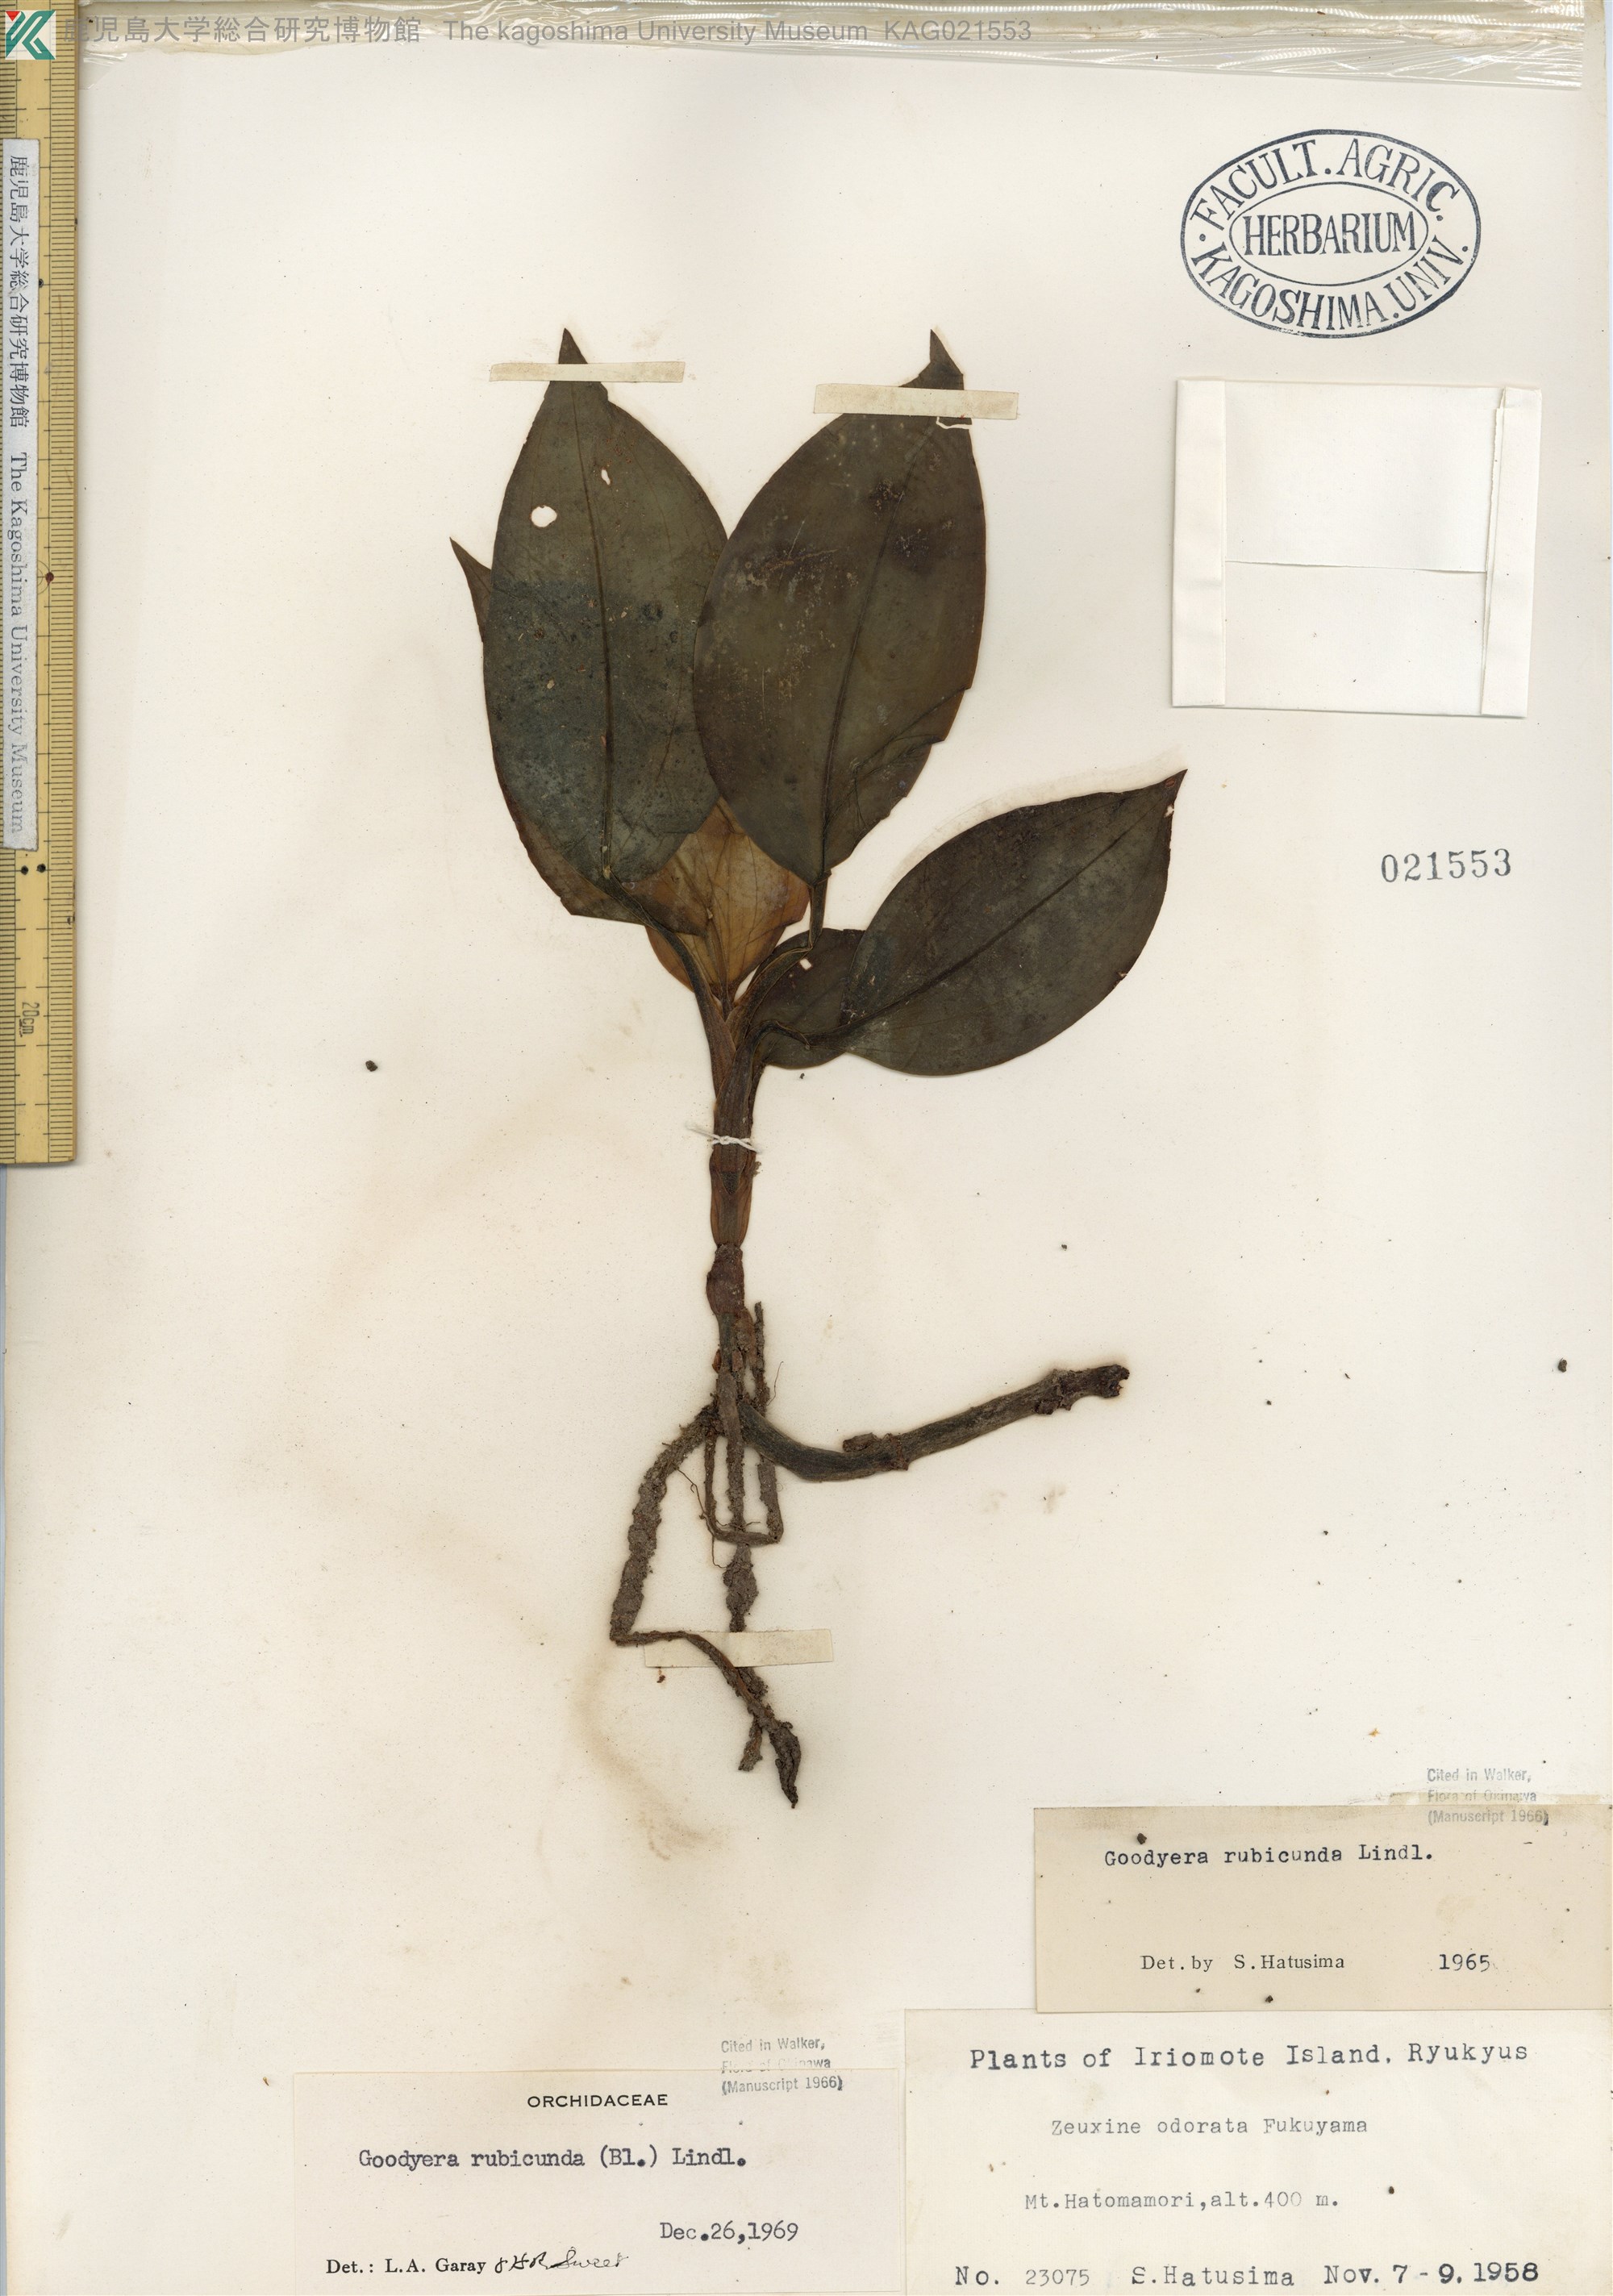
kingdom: Plantae
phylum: Tracheophyta
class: Liliopsida
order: Asparagales
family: Orchidaceae
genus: Goodyera
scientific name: Goodyera rubicunda
